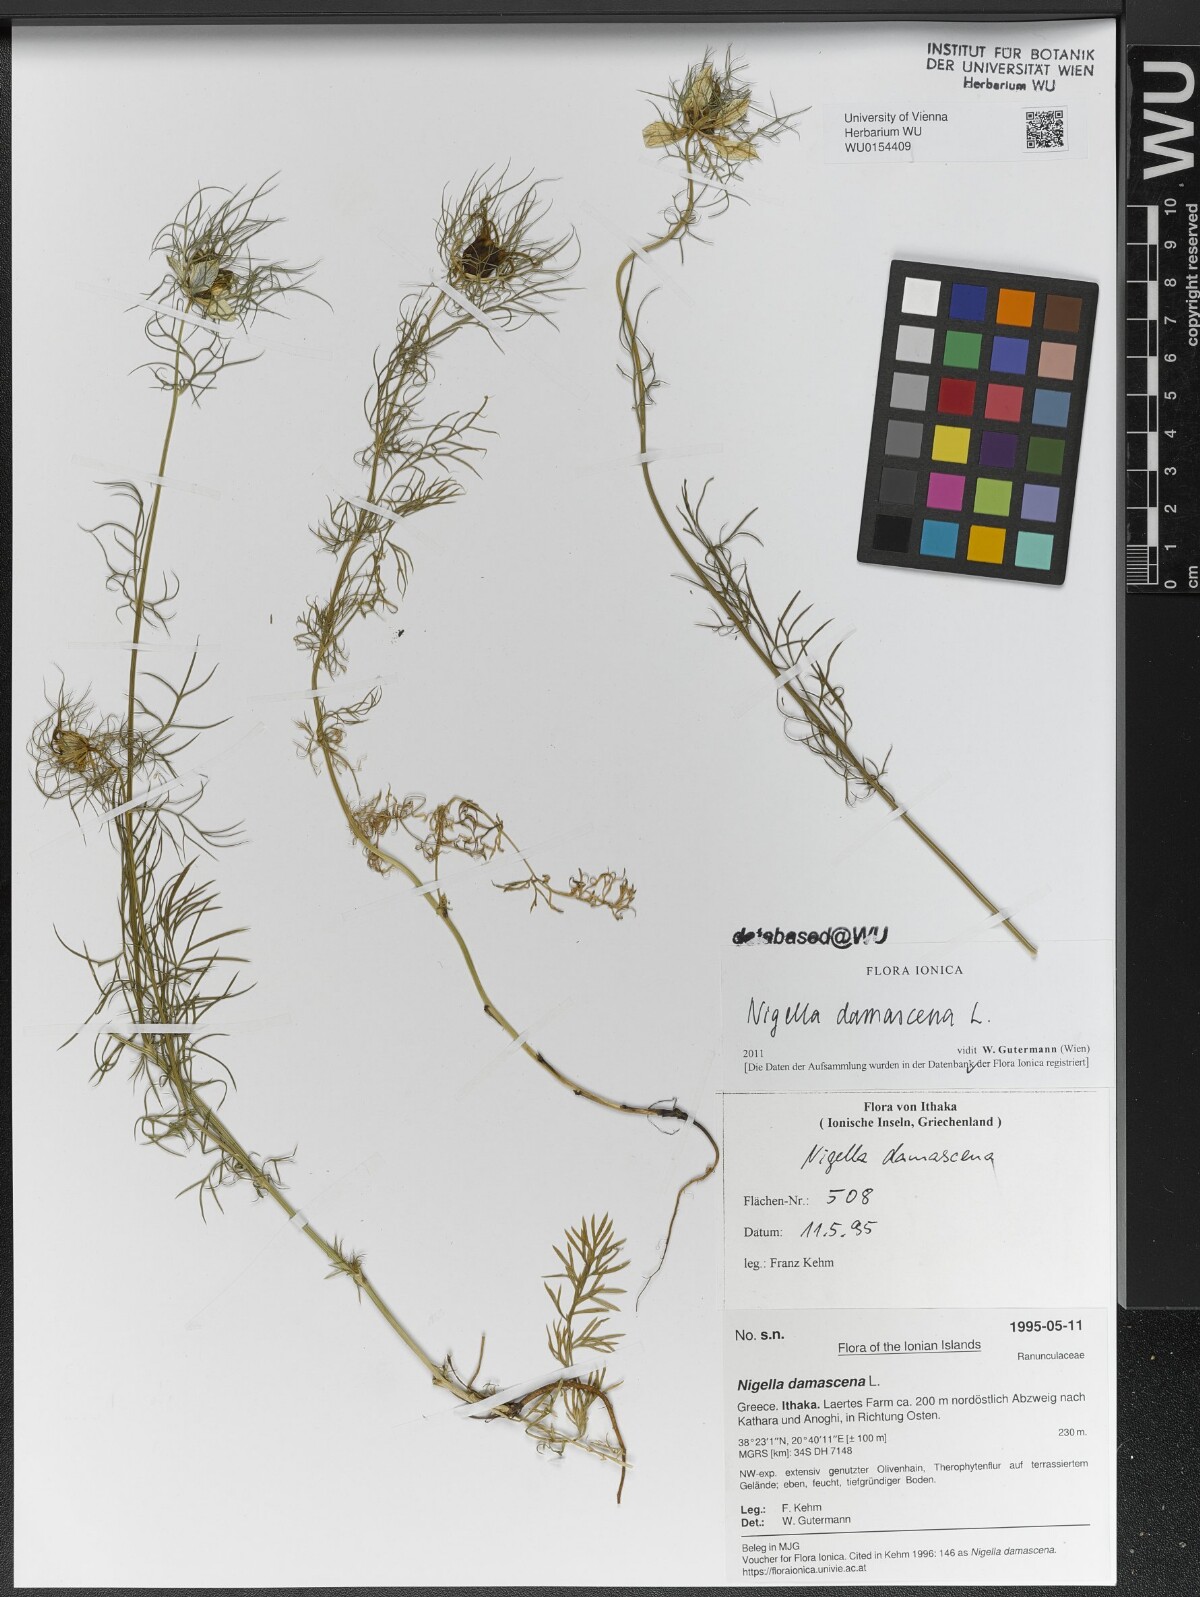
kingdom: Plantae
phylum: Tracheophyta
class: Magnoliopsida
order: Ranunculales
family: Ranunculaceae
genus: Nigella
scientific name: Nigella damascena
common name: Love-in-a-mist
